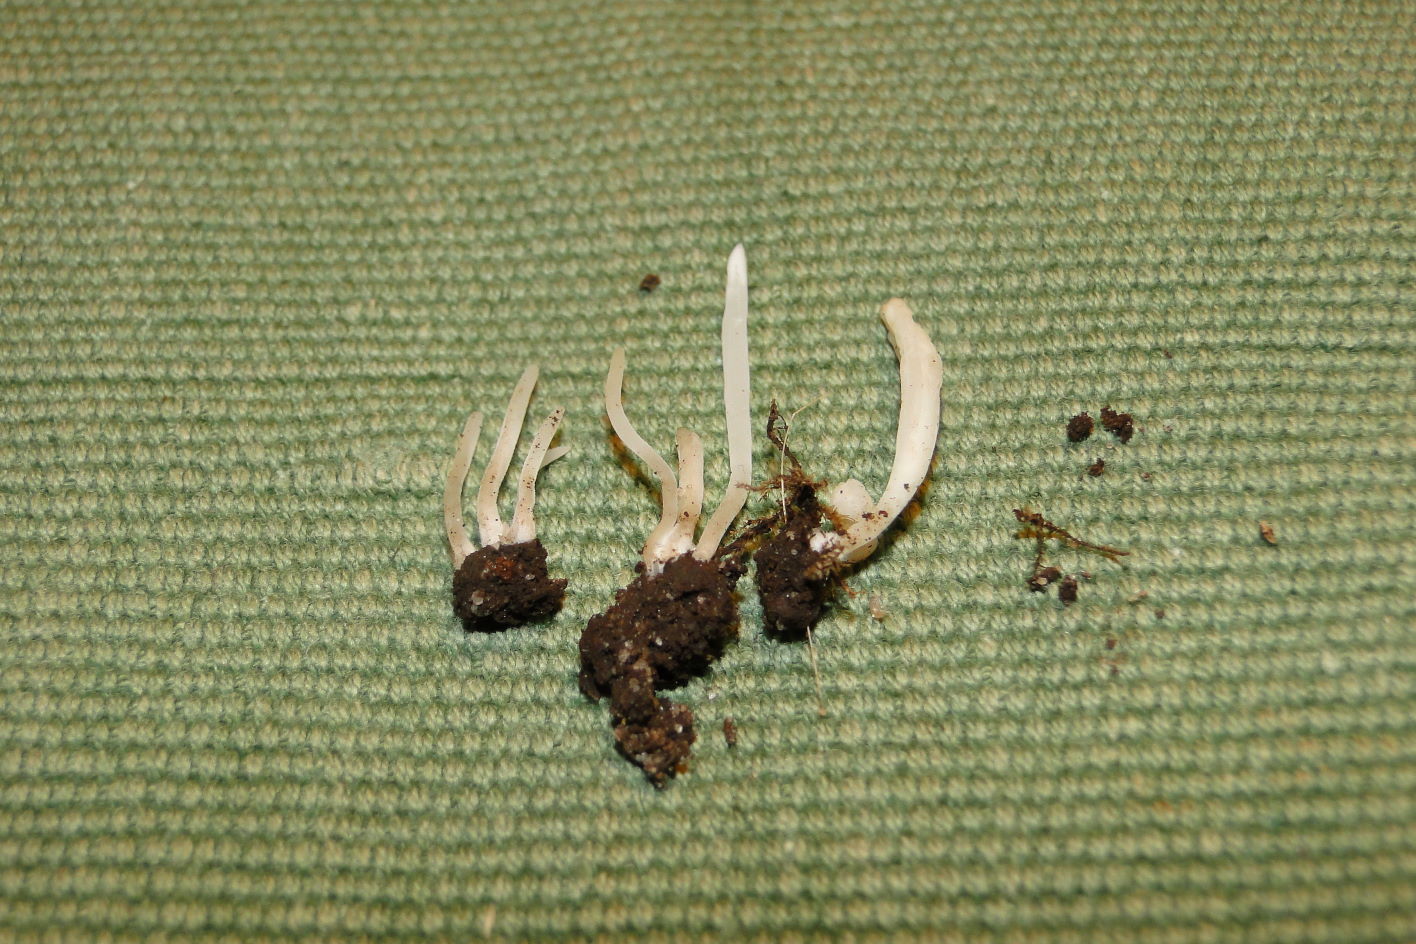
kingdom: Fungi
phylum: Basidiomycota
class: Agaricomycetes
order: Agaricales
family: Clavariaceae
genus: Clavaria
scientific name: Clavaria fragilis
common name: bugtet køllesvamp
